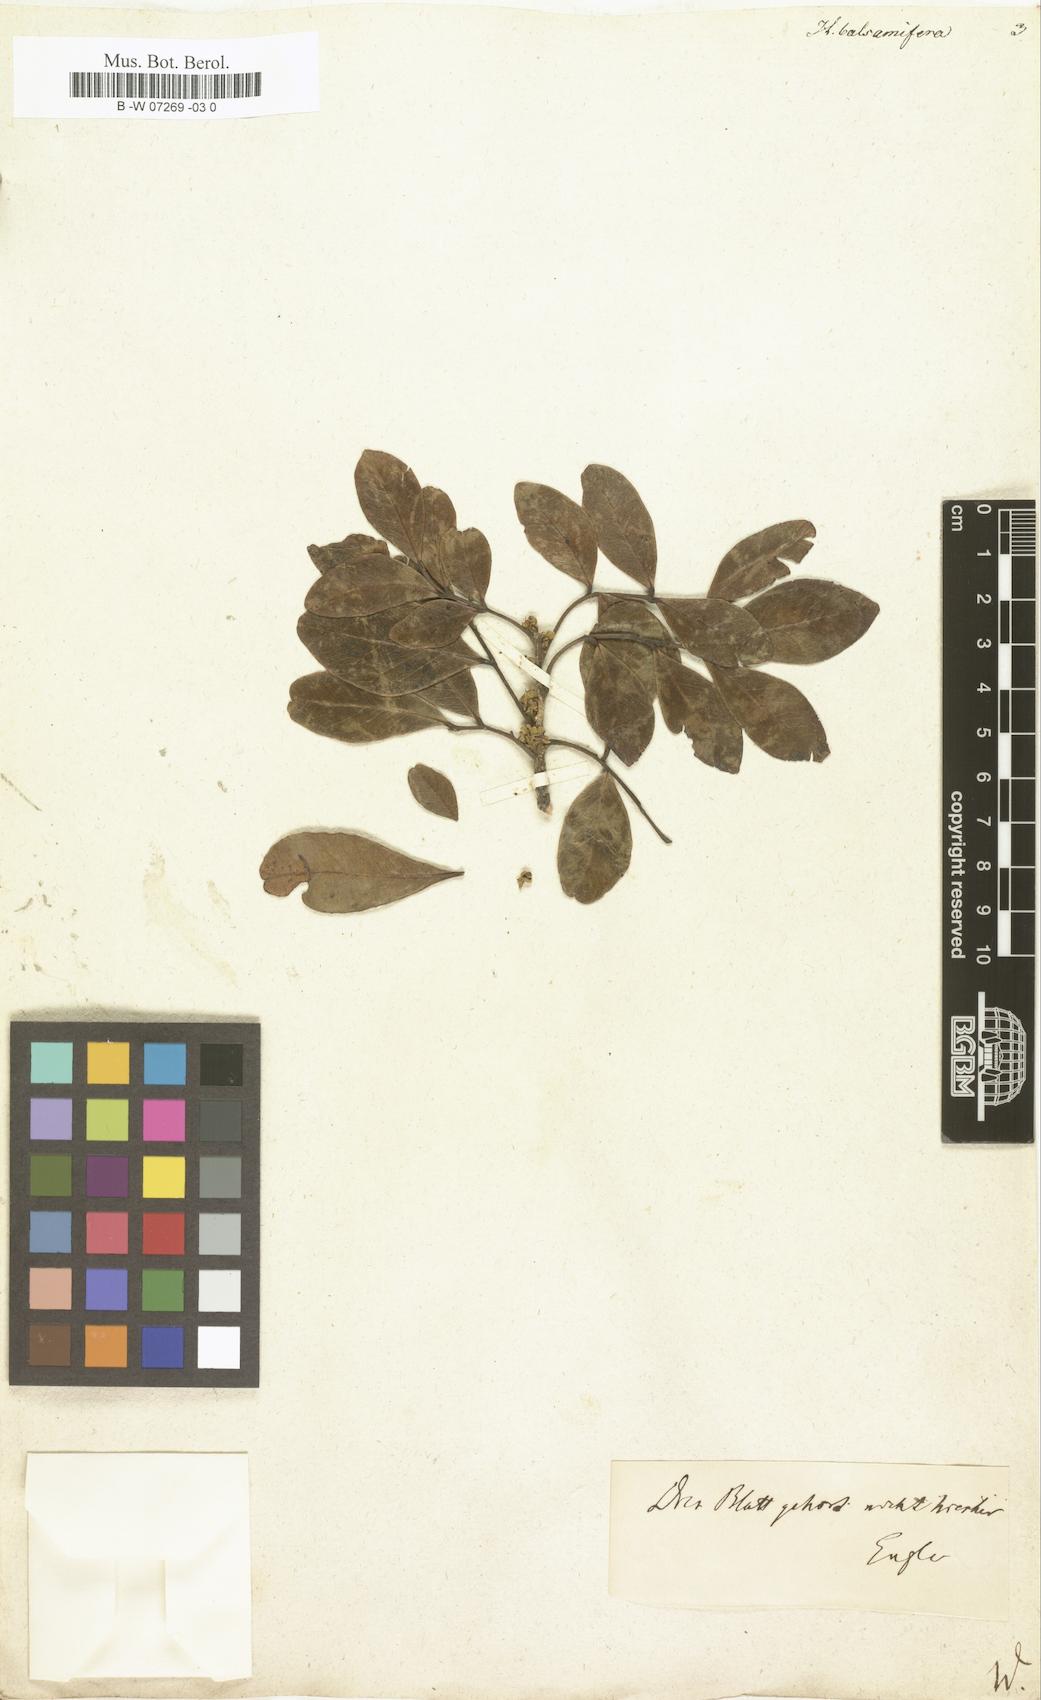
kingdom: Plantae
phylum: Tracheophyta
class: Magnoliopsida
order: Sapindales
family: Burseraceae
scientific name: Burseraceae
